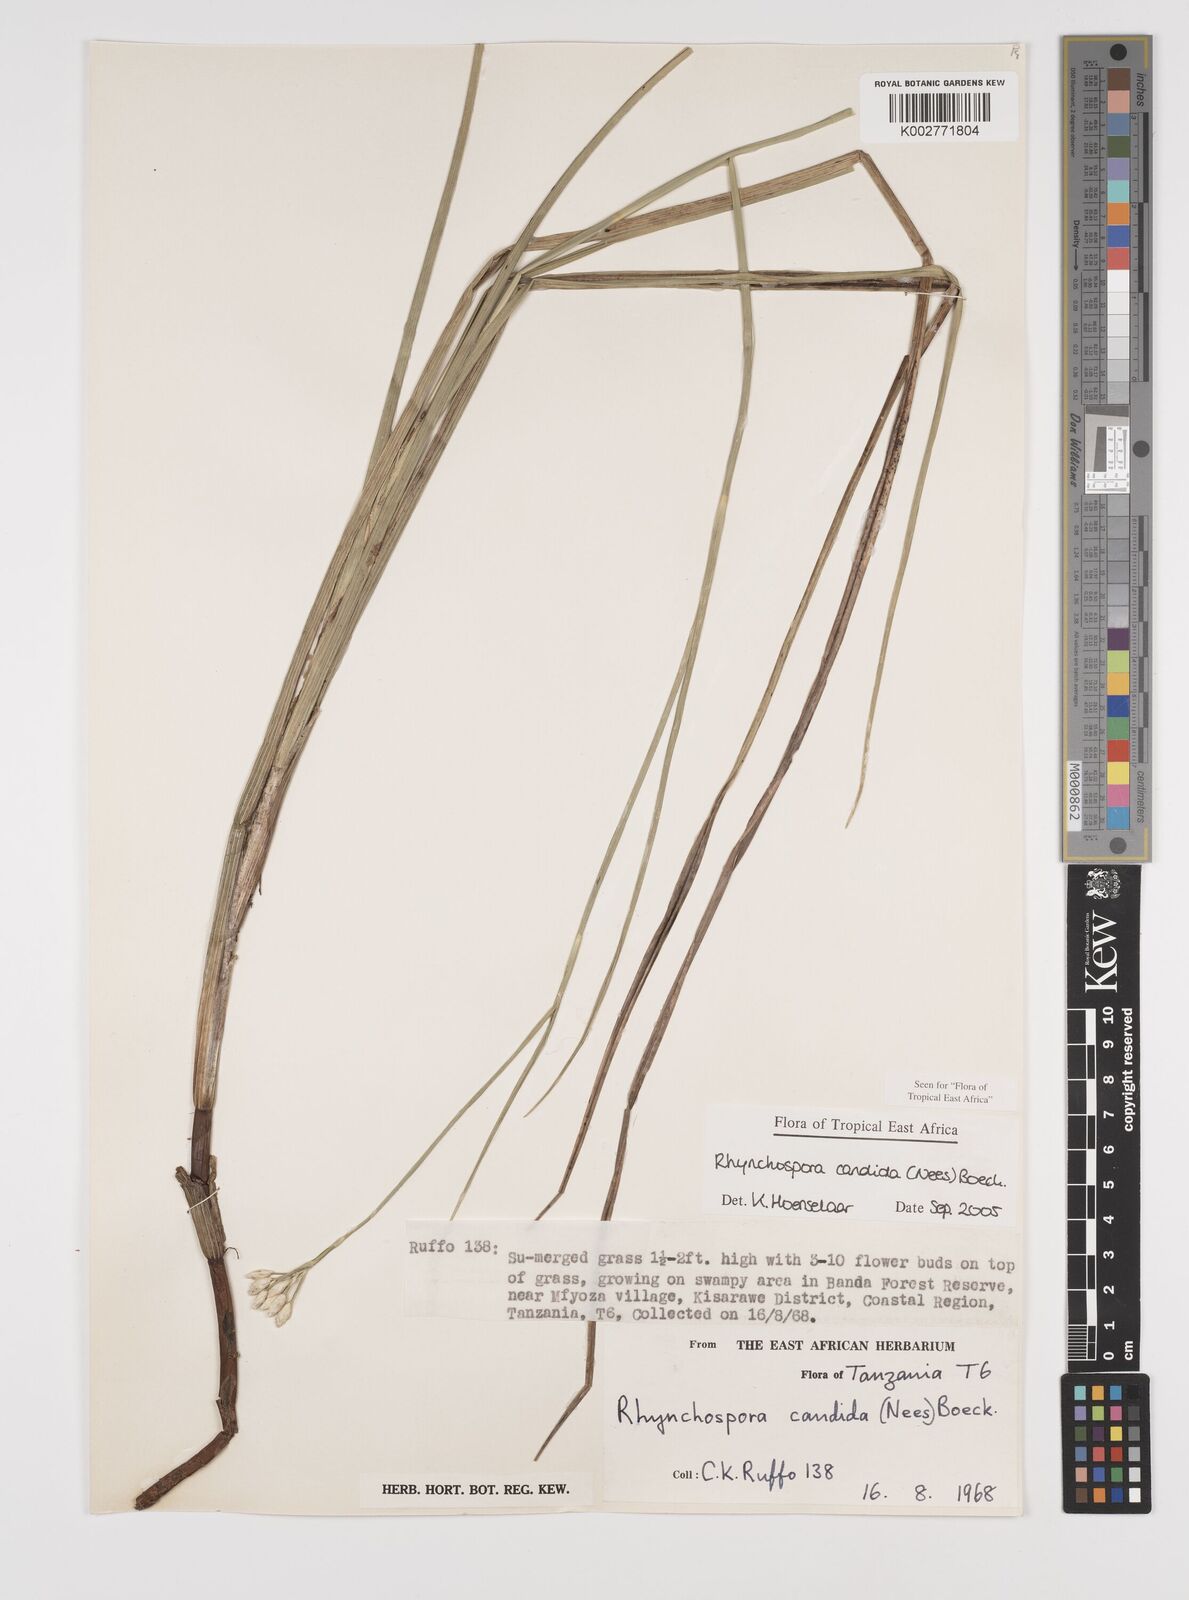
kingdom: Plantae
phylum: Tracheophyta
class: Liliopsida
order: Poales
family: Cyperaceae
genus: Rhynchospora
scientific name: Rhynchospora candida
